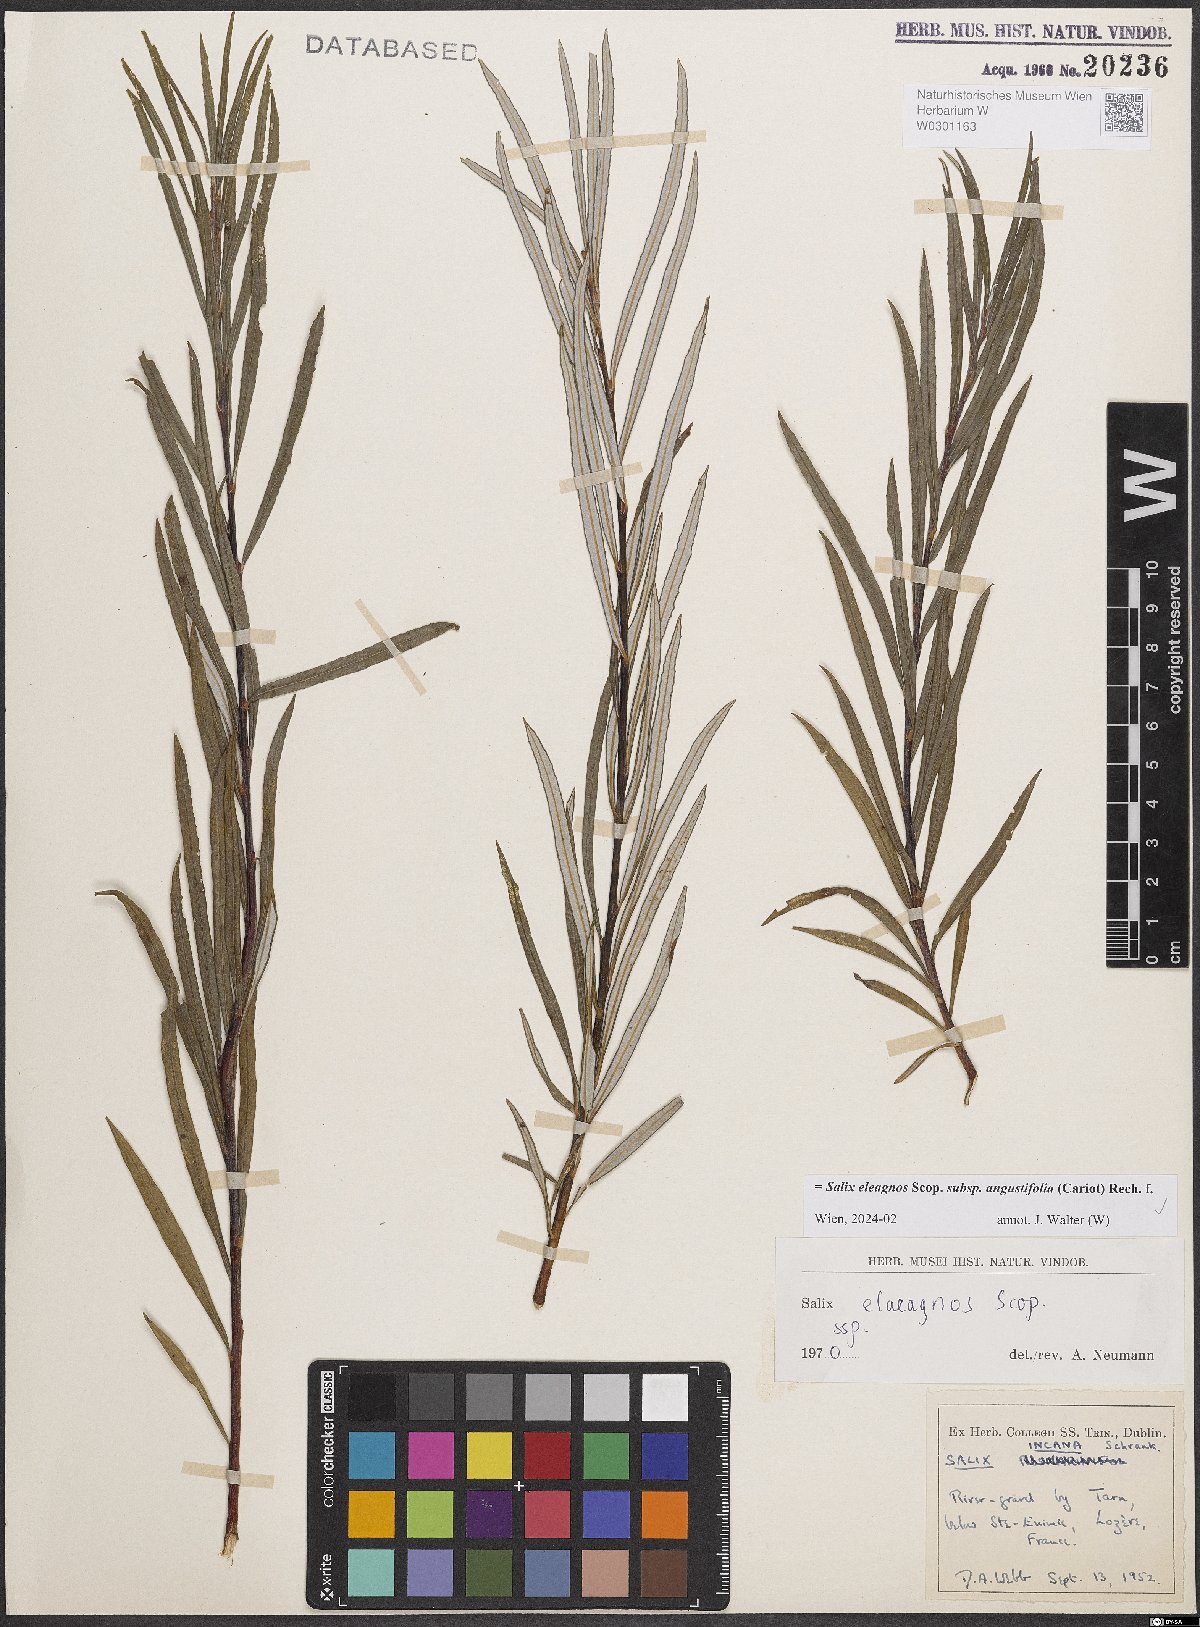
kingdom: Plantae
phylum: Tracheophyta
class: Magnoliopsida
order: Malpighiales
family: Salicaceae
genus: Salix
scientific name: Salix eleagnos
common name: Elaeagnus willow
